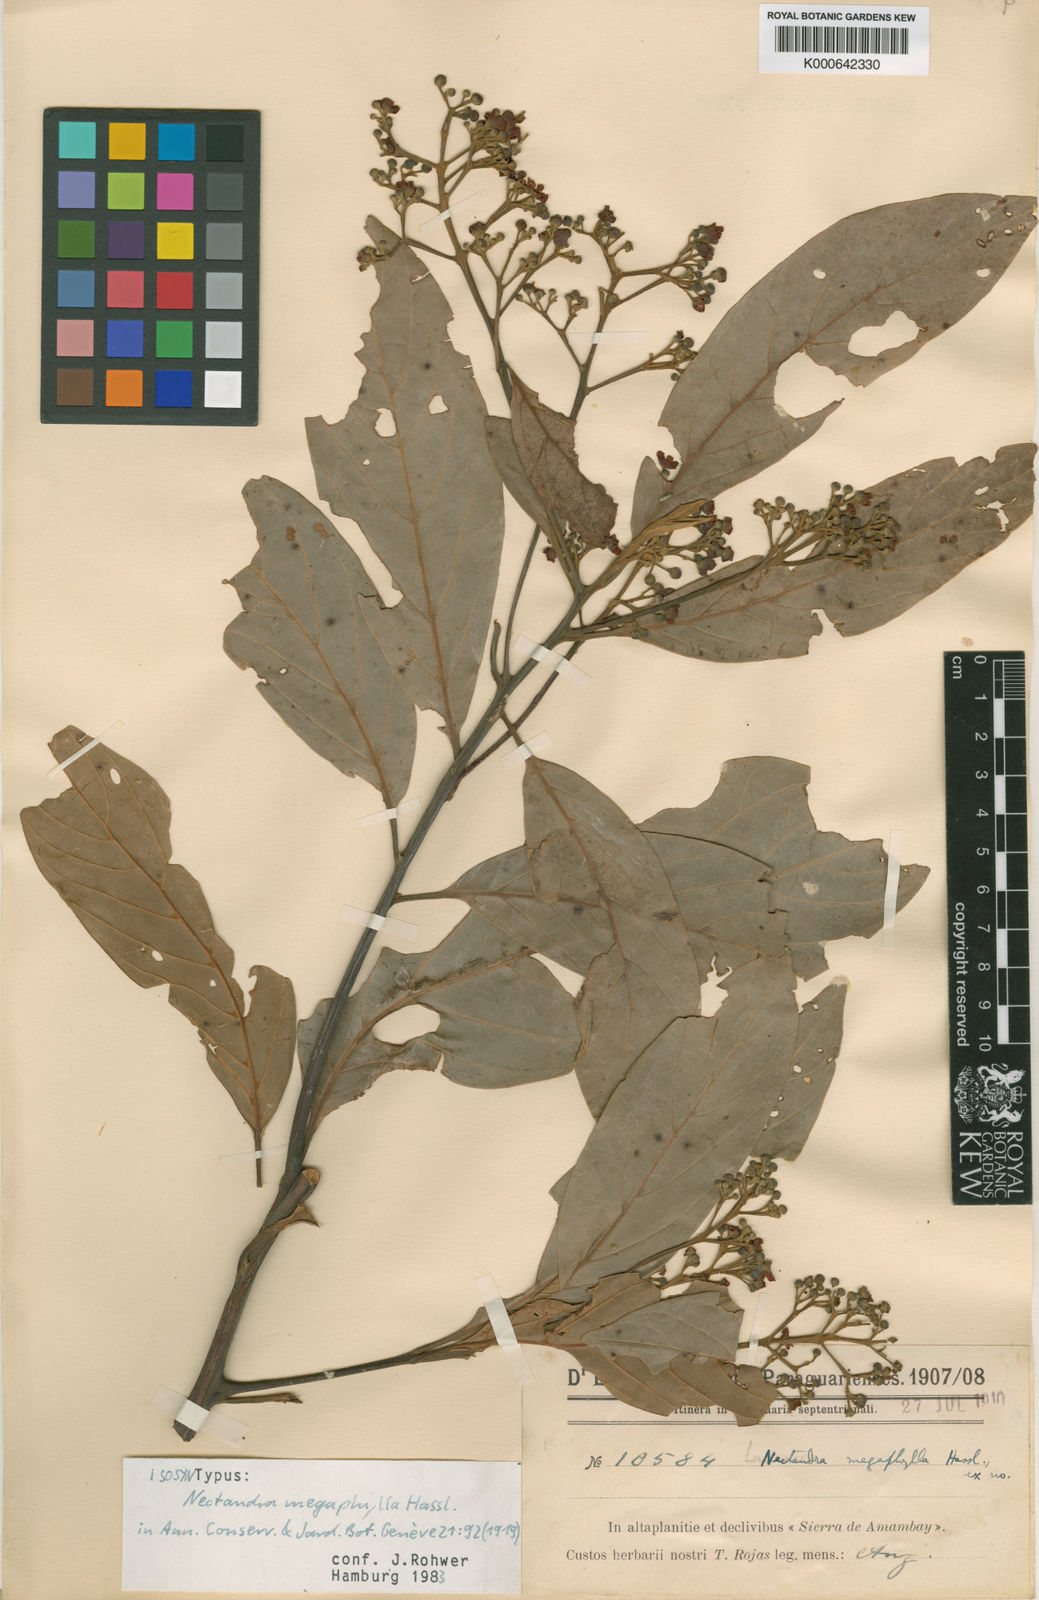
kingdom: Plantae
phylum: Tracheophyta
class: Magnoliopsida
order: Laurales
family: Lauraceae
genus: Nectandra
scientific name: Nectandra hihua
